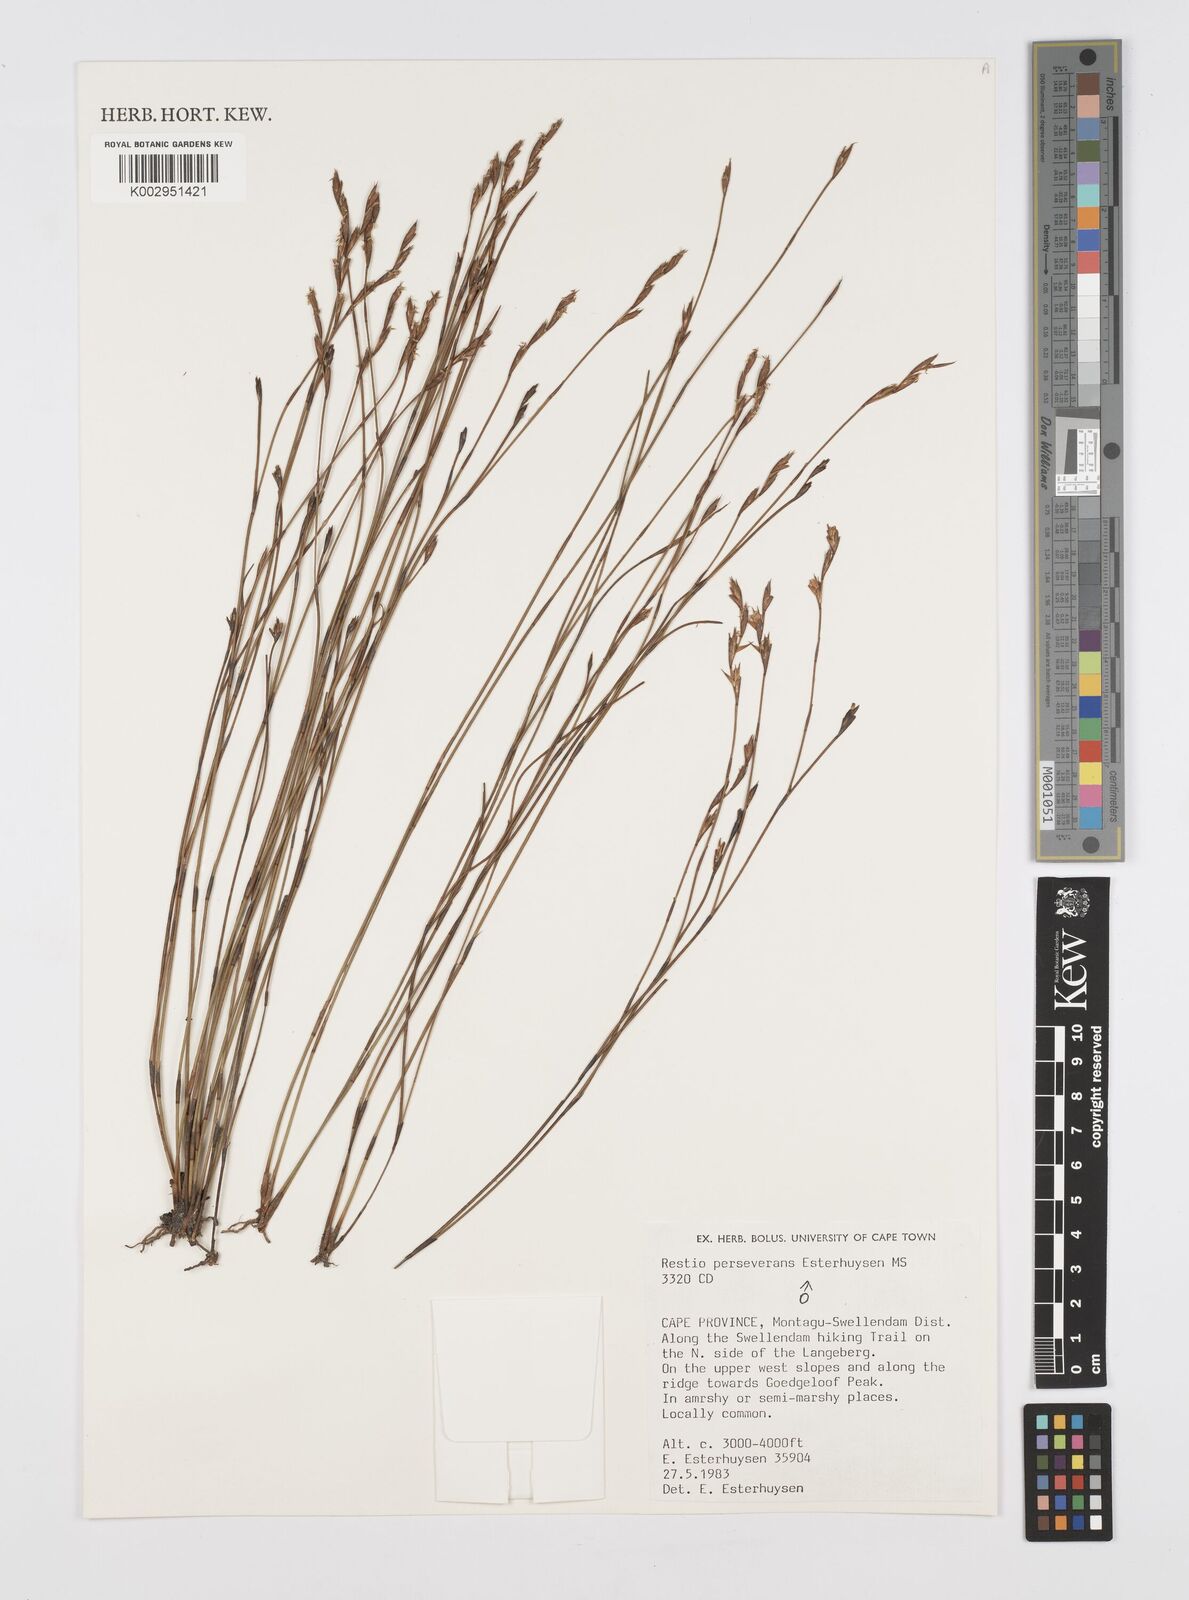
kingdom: Plantae
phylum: Tracheophyta
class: Liliopsida
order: Poales
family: Restionaceae
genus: Restio
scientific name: Restio perseverans
